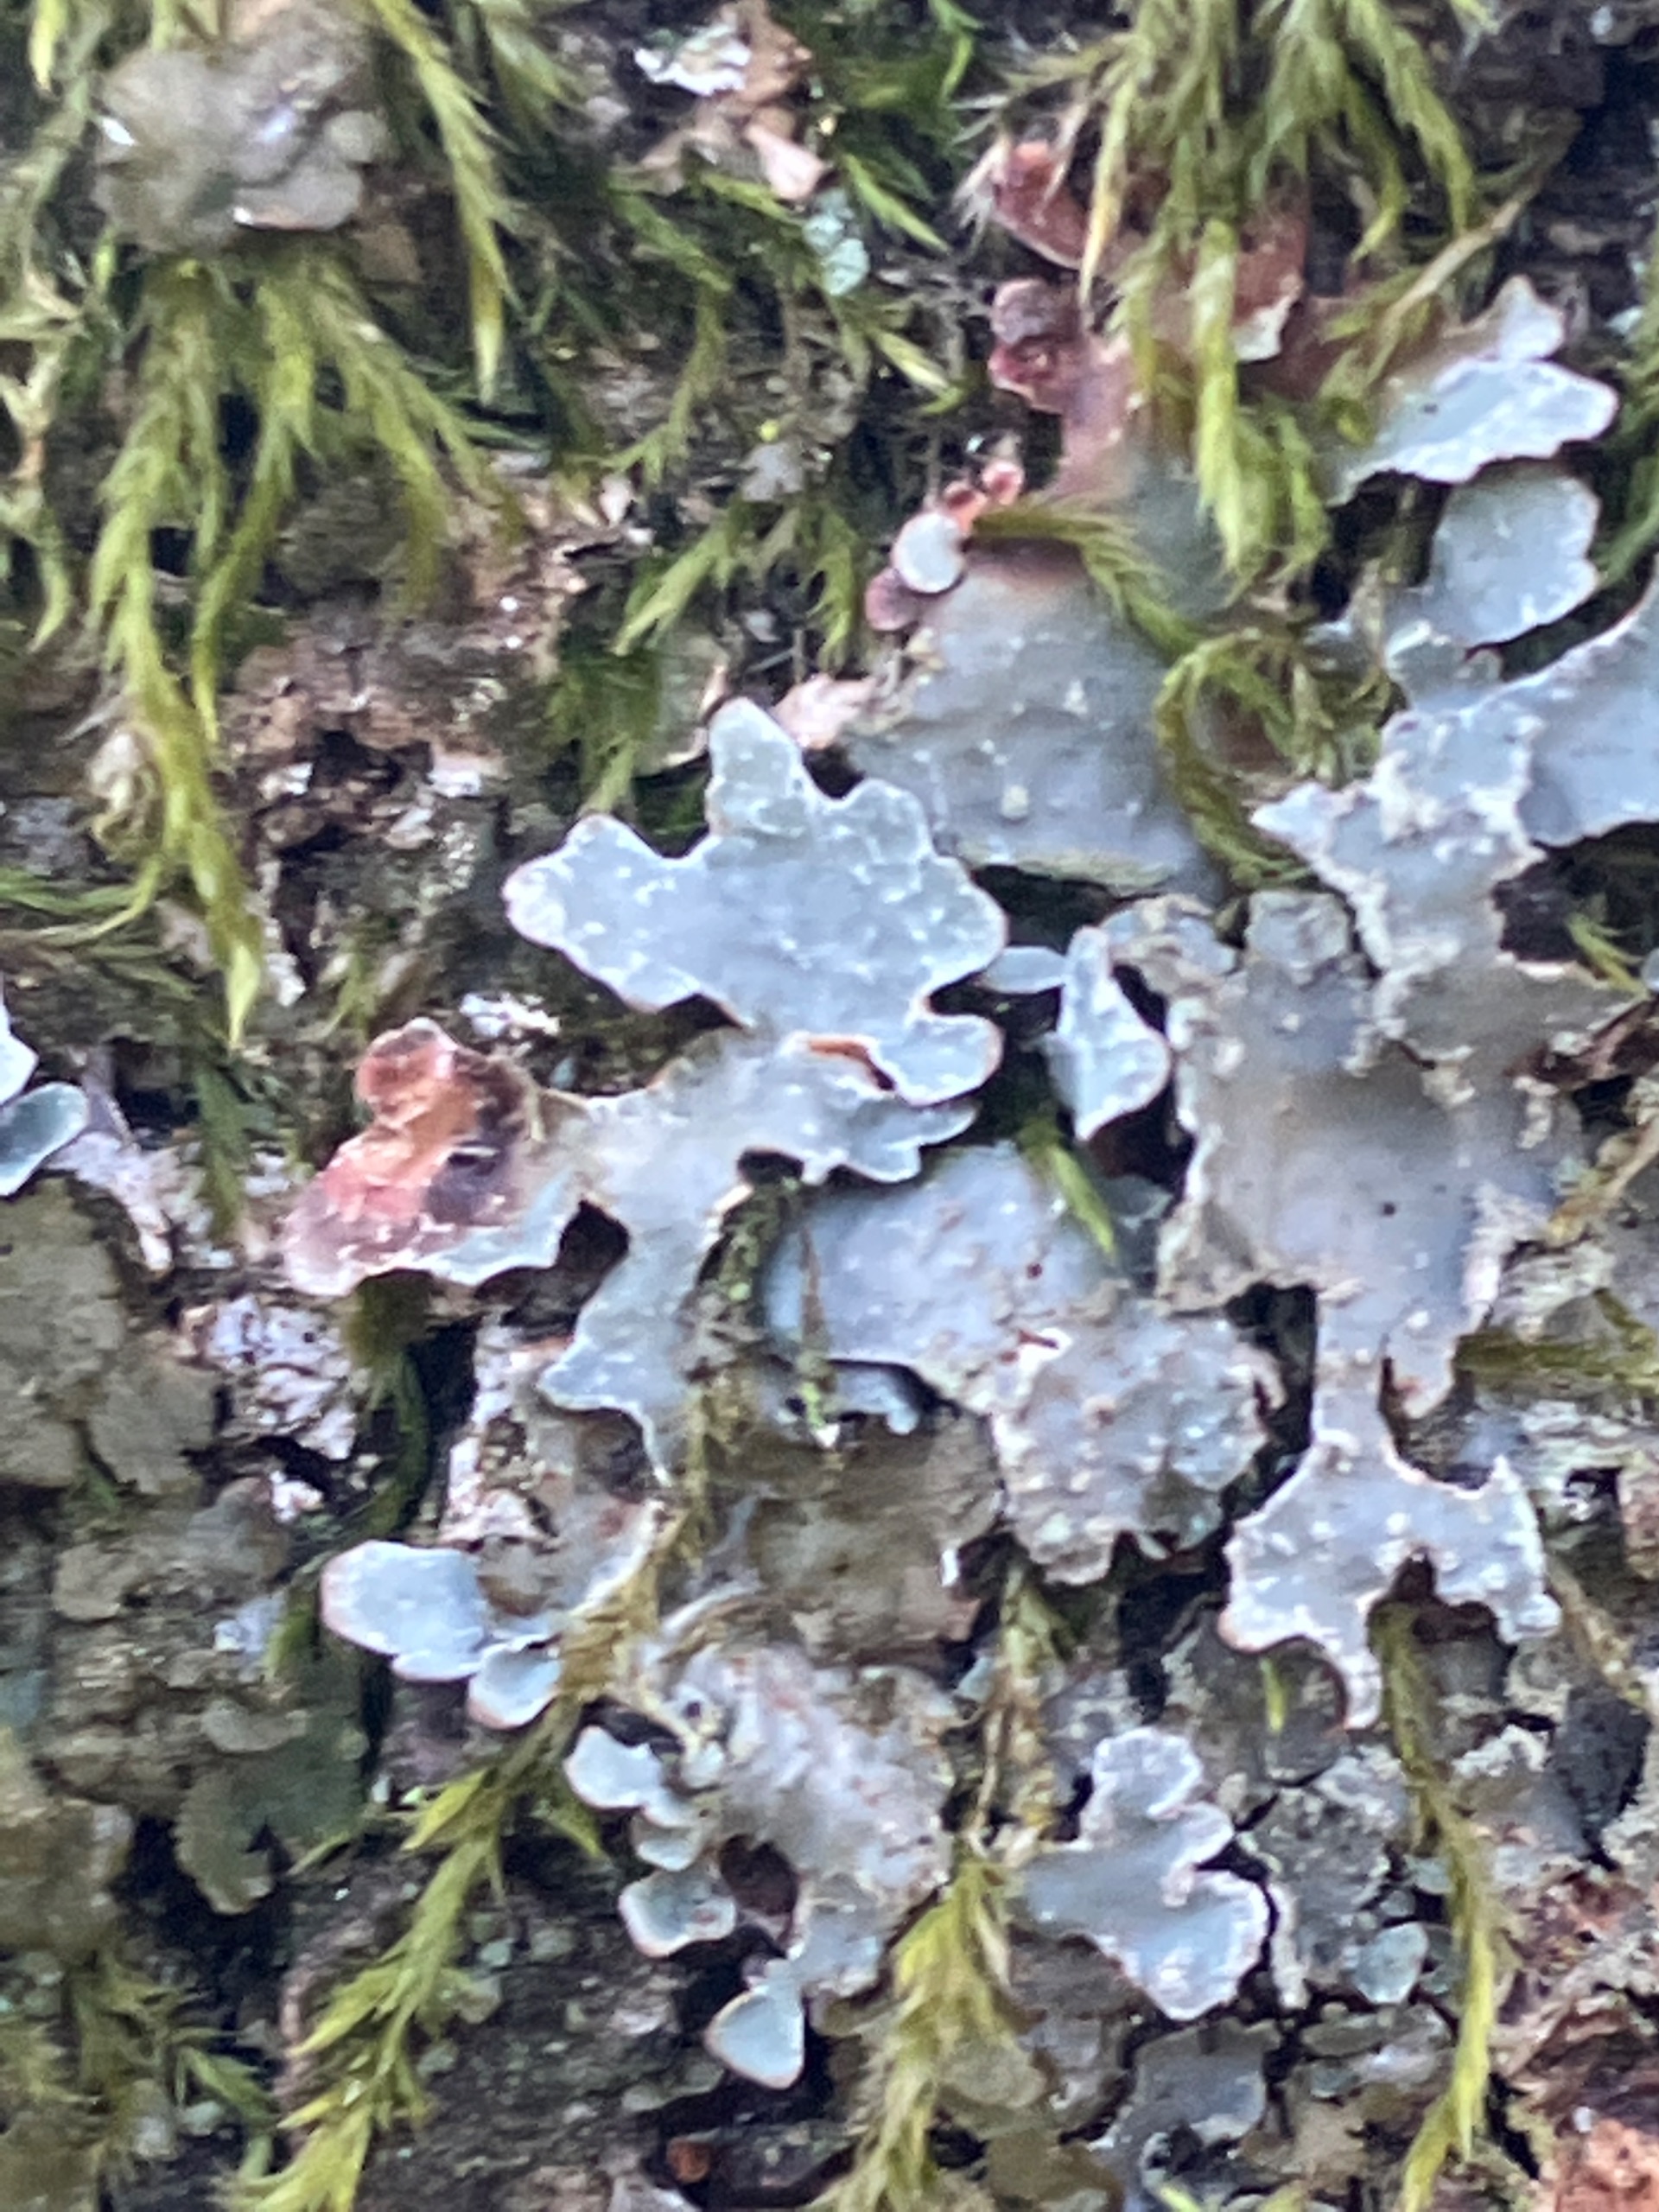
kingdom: Fungi
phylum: Ascomycota
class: Lecanoromycetes
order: Lecanorales
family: Parmeliaceae
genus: Parmelia
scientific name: Parmelia sulcata
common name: Rynket skållav
